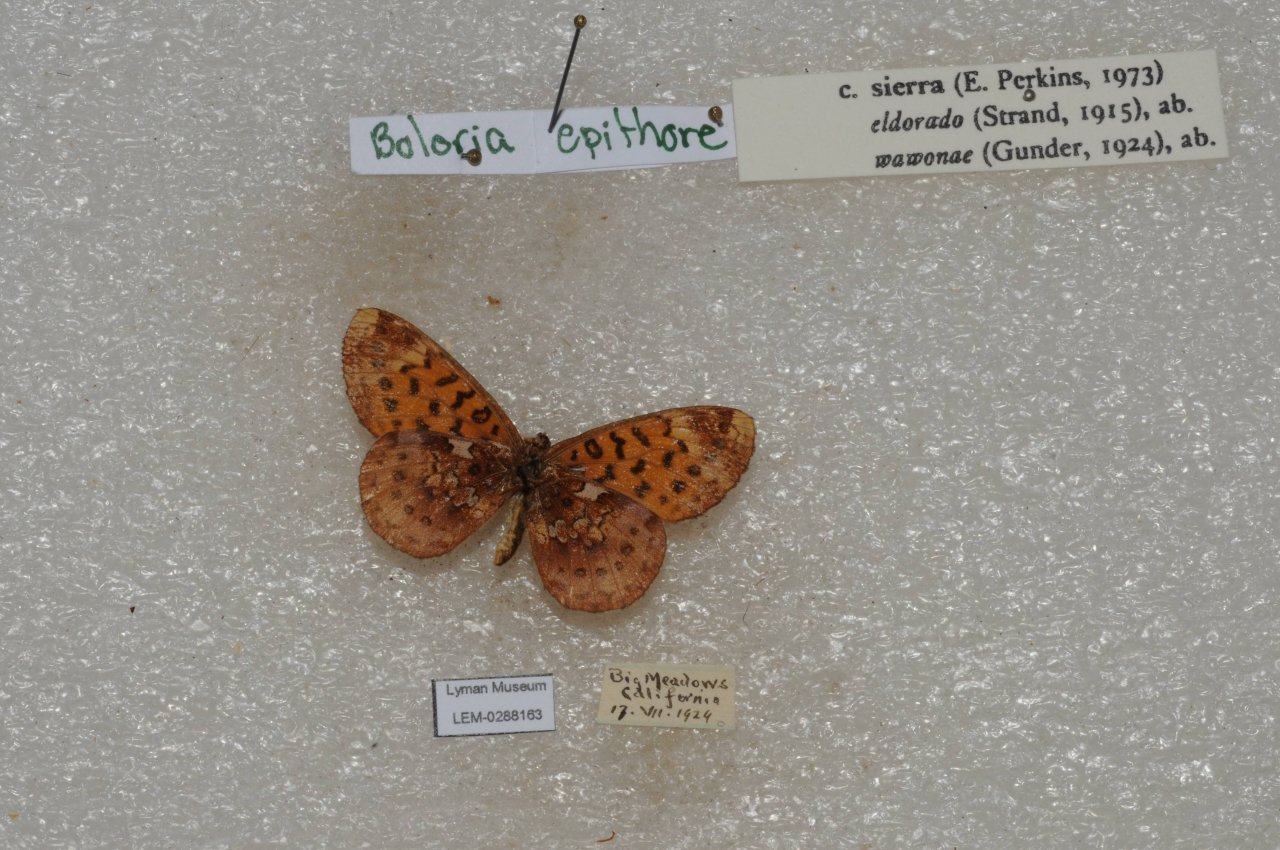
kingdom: Animalia
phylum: Arthropoda
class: Insecta
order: Lepidoptera
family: Nymphalidae
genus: Boloria
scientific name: Boloria epithore
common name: Pacific Fritillary
